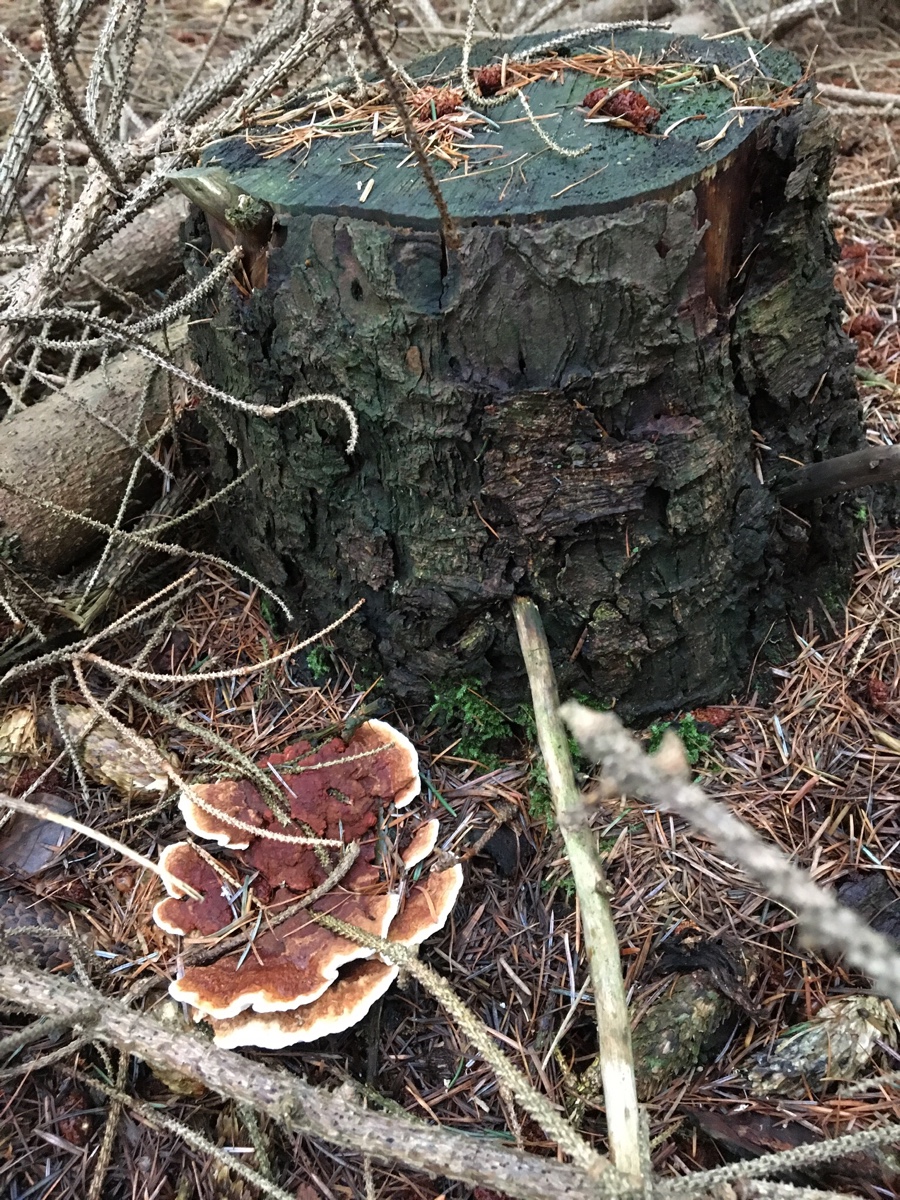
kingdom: Fungi
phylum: Basidiomycota
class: Agaricomycetes
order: Russulales
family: Bondarzewiaceae
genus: Heterobasidion
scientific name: Heterobasidion annosum
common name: almindelig rodfordærver
